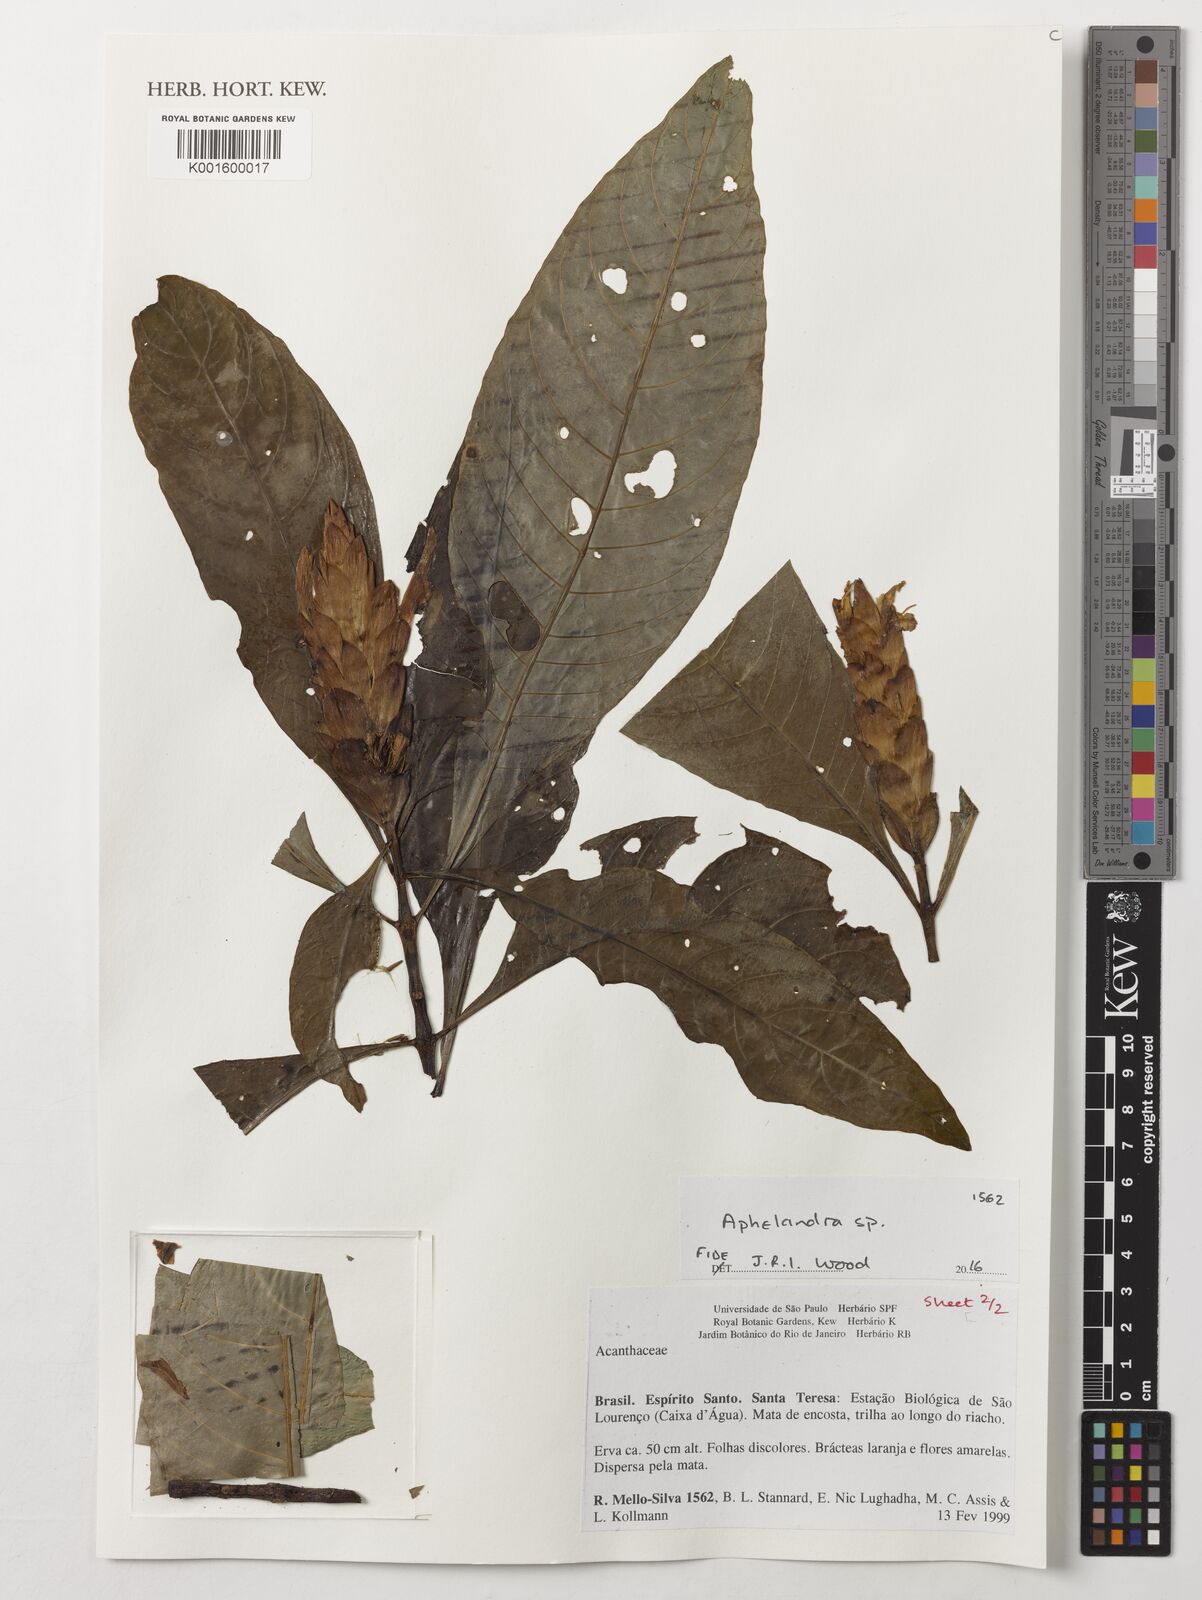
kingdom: Plantae
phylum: Tracheophyta
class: Magnoliopsida
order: Lamiales
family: Acanthaceae
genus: Aphelandra
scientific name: Aphelandra
